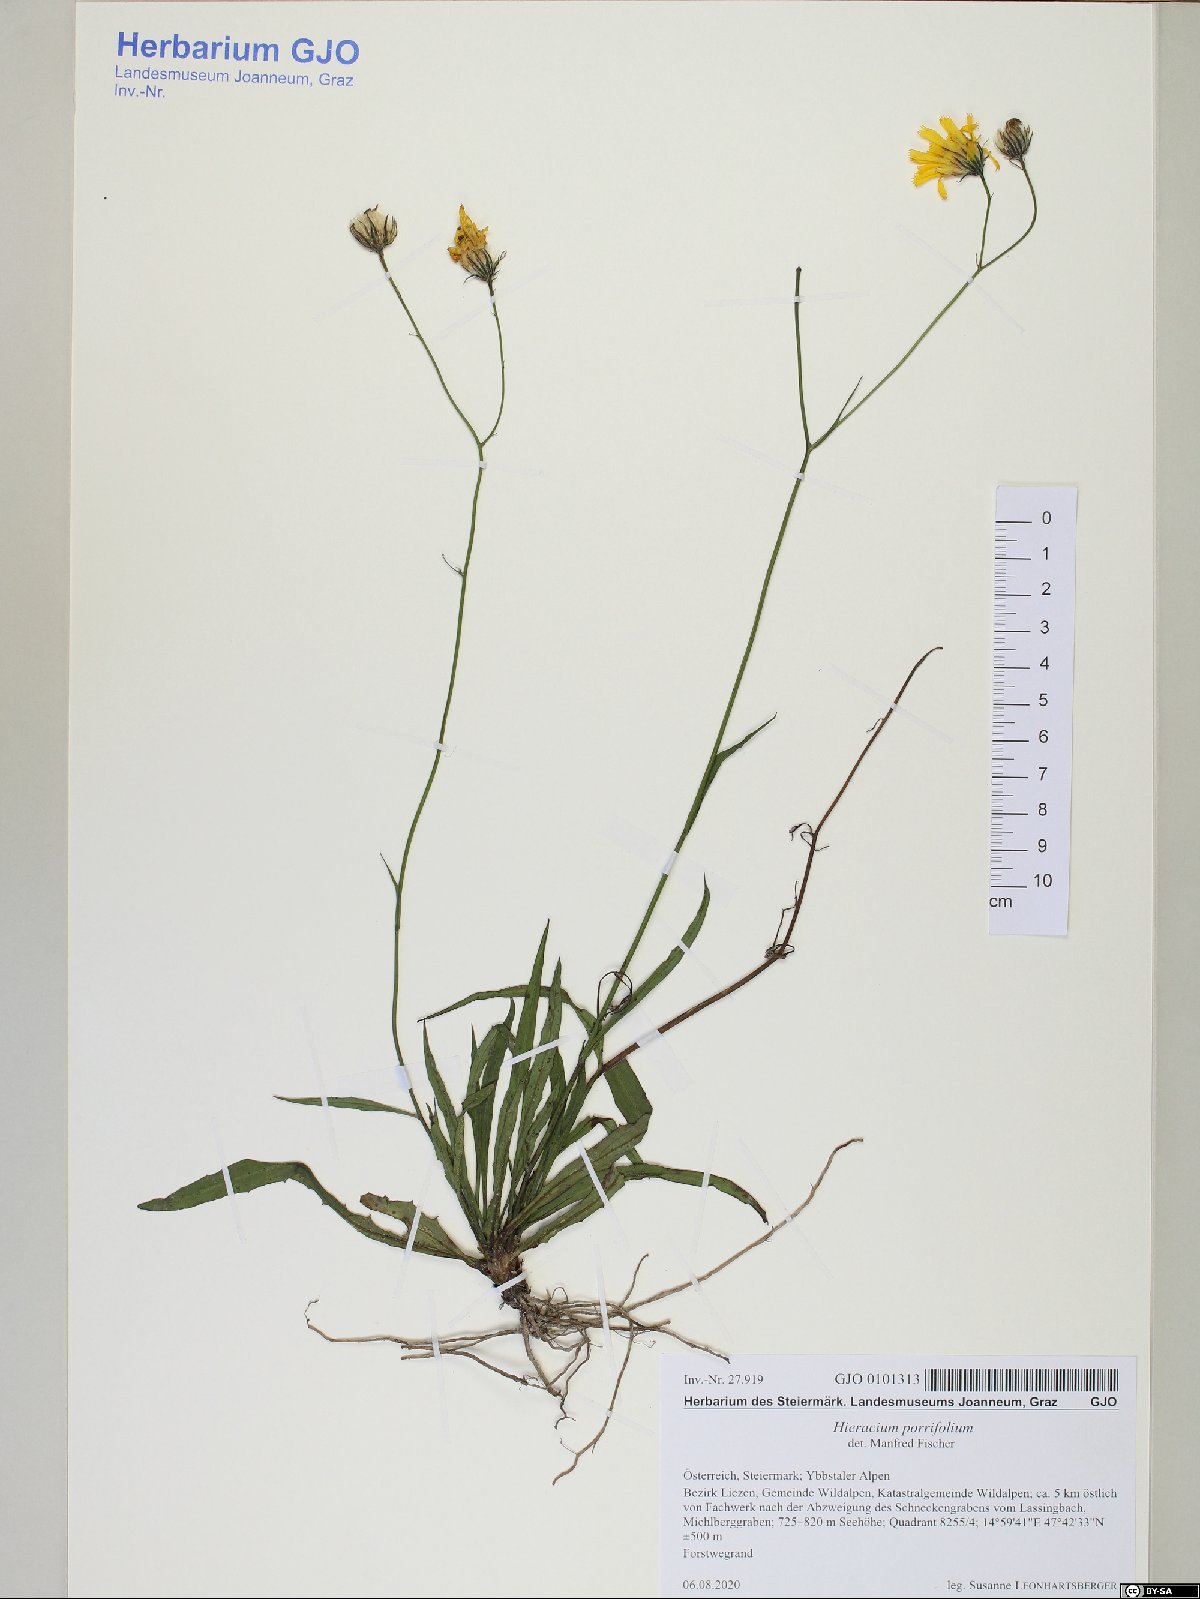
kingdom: Plantae
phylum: Tracheophyta
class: Magnoliopsida
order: Asterales
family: Asteraceae
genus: Hieracium
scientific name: Hieracium porrifolium
